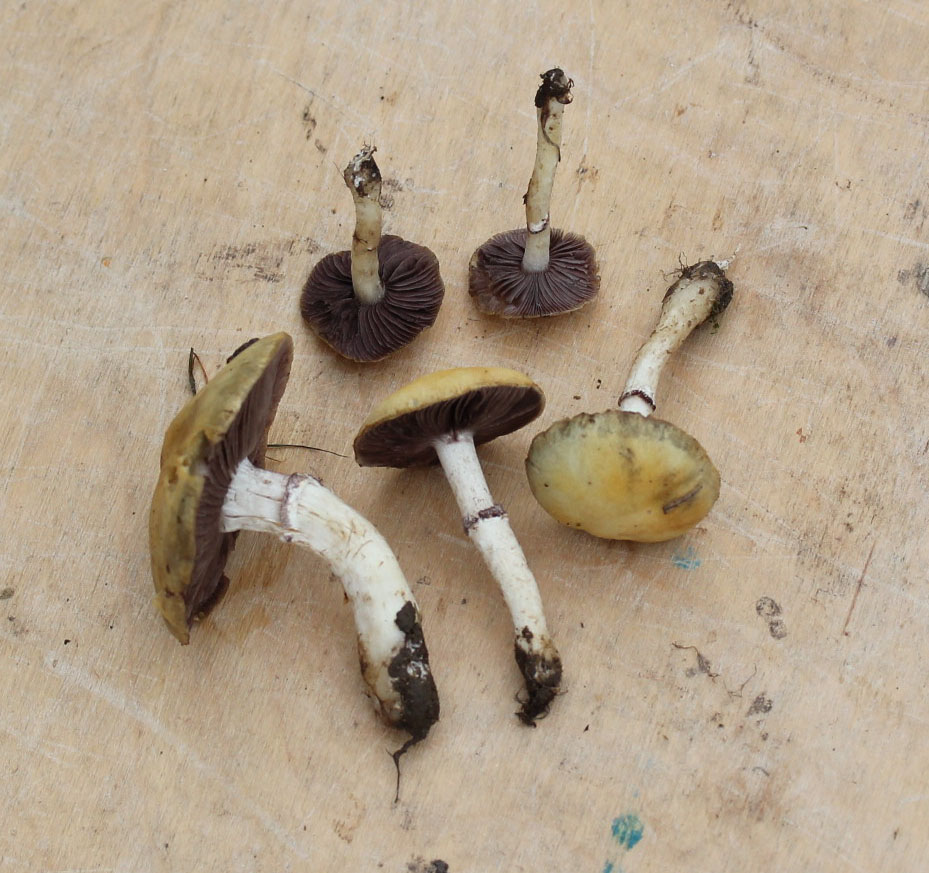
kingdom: Fungi
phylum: Basidiomycota
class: Agaricomycetes
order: Agaricales
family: Strophariaceae
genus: Agrocybe
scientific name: Agrocybe praecox
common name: tidlig agerhat
